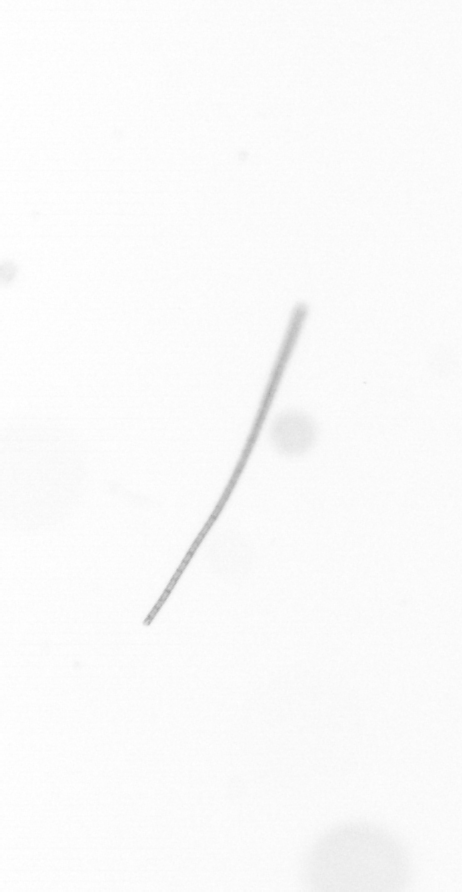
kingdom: Chromista
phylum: Ochrophyta
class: Bacillariophyceae
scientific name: Bacillariophyceae
